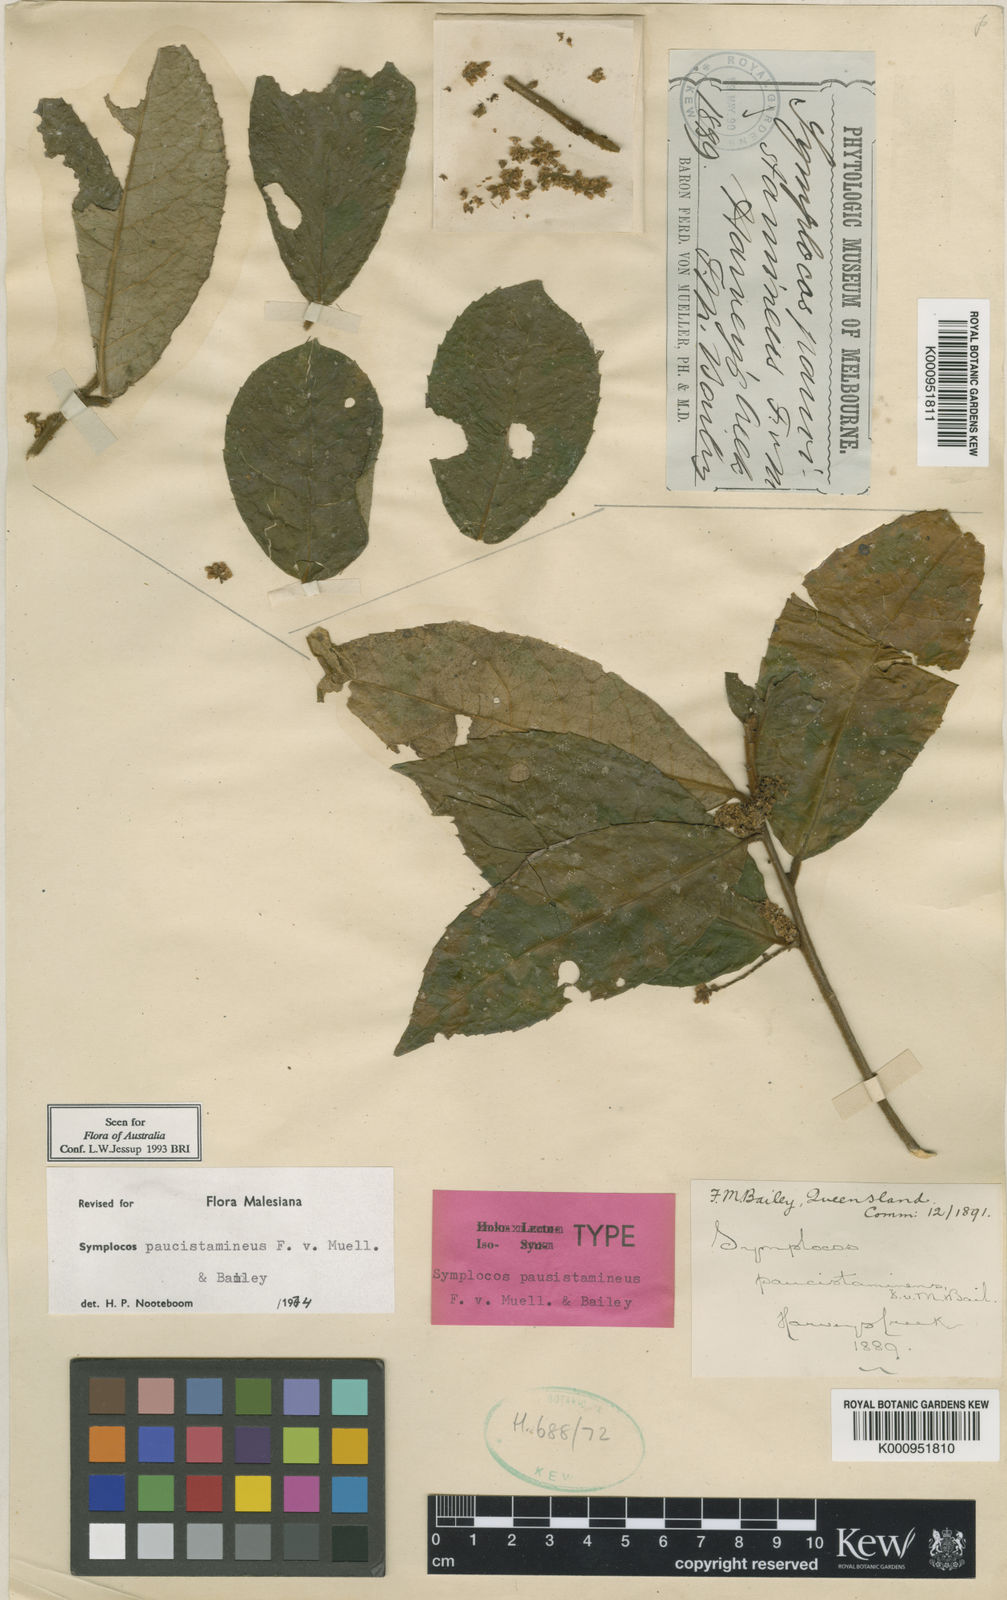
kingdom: Plantae
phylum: Tracheophyta
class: Magnoliopsida
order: Ericales
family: Symplocaceae
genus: Symplocos
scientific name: Symplocos paucistaminea
